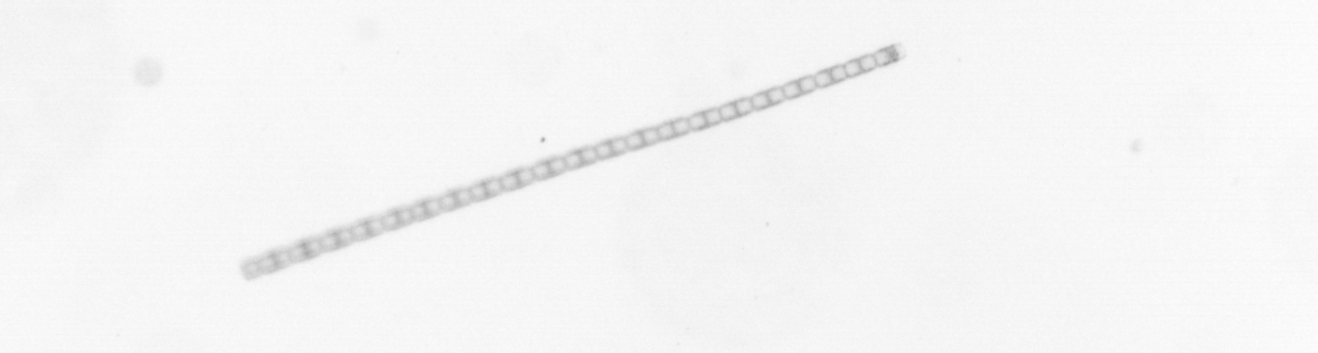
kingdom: Chromista
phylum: Ochrophyta
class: Bacillariophyceae
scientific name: Bacillariophyceae
